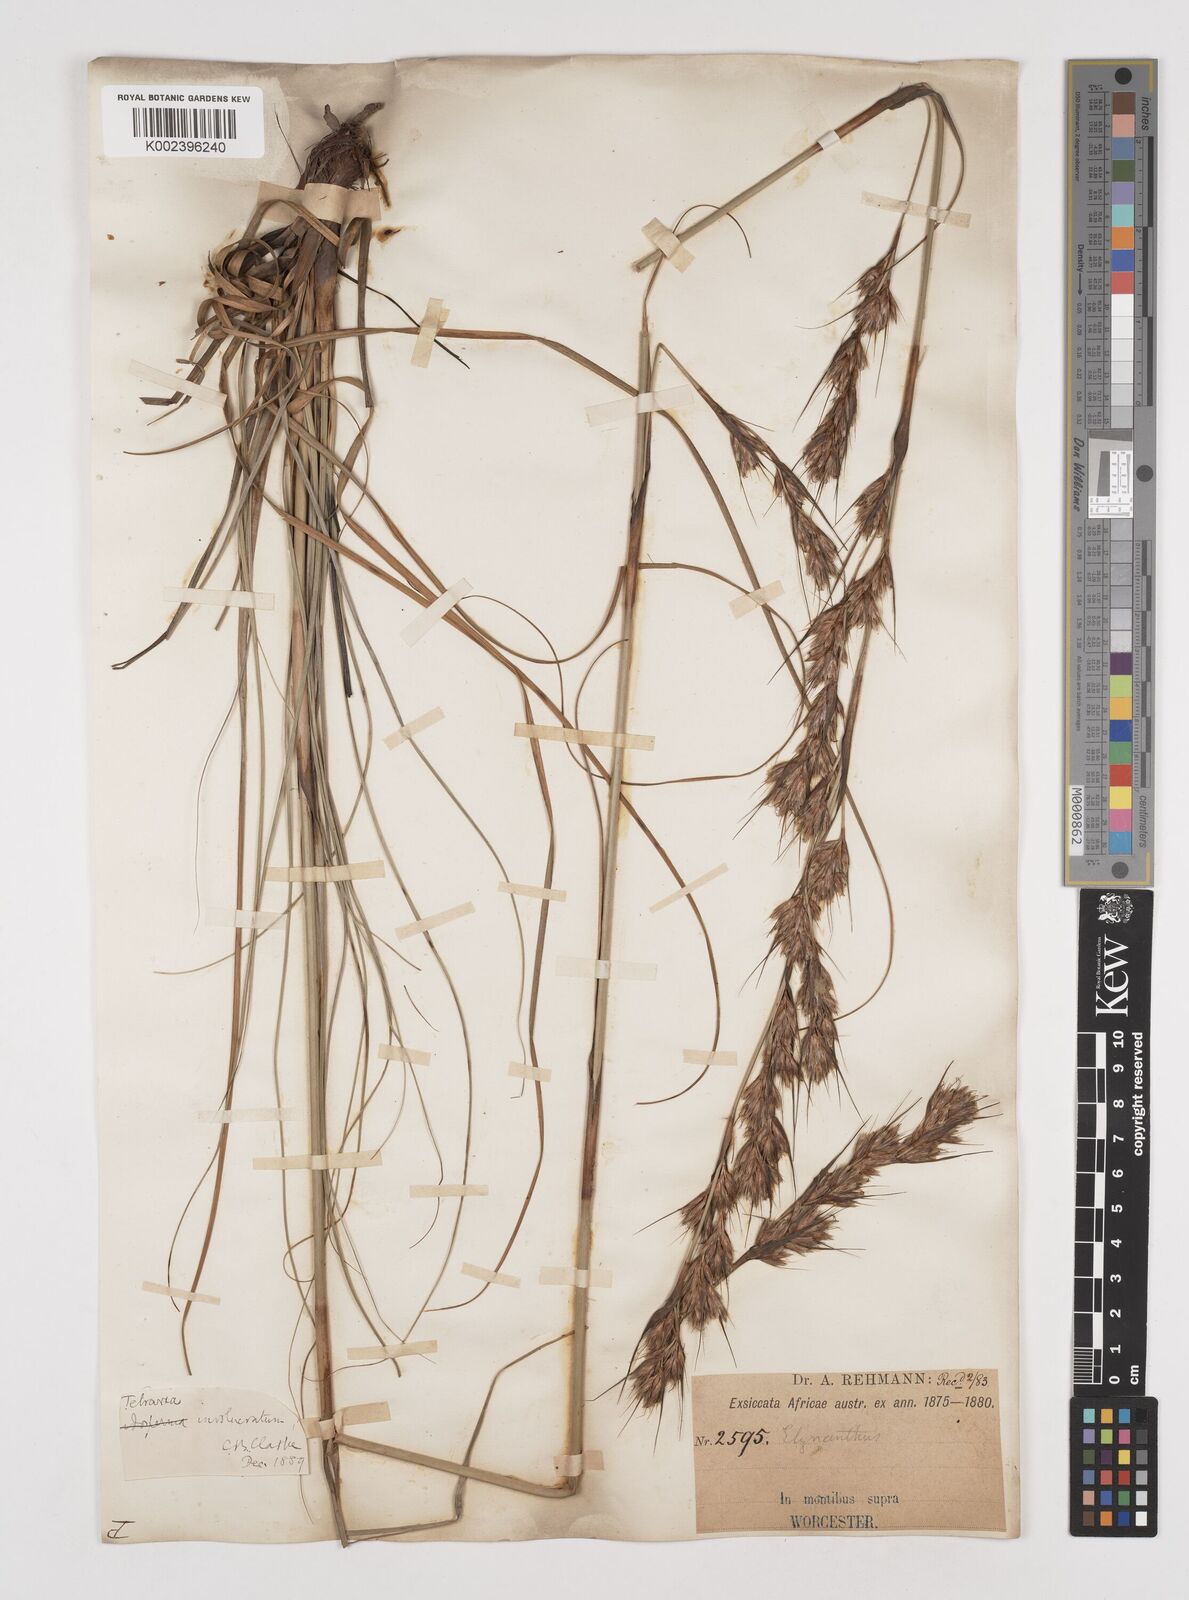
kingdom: Plantae
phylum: Tracheophyta
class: Liliopsida
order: Poales
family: Cyperaceae
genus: Tetraria
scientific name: Tetraria involucrata
